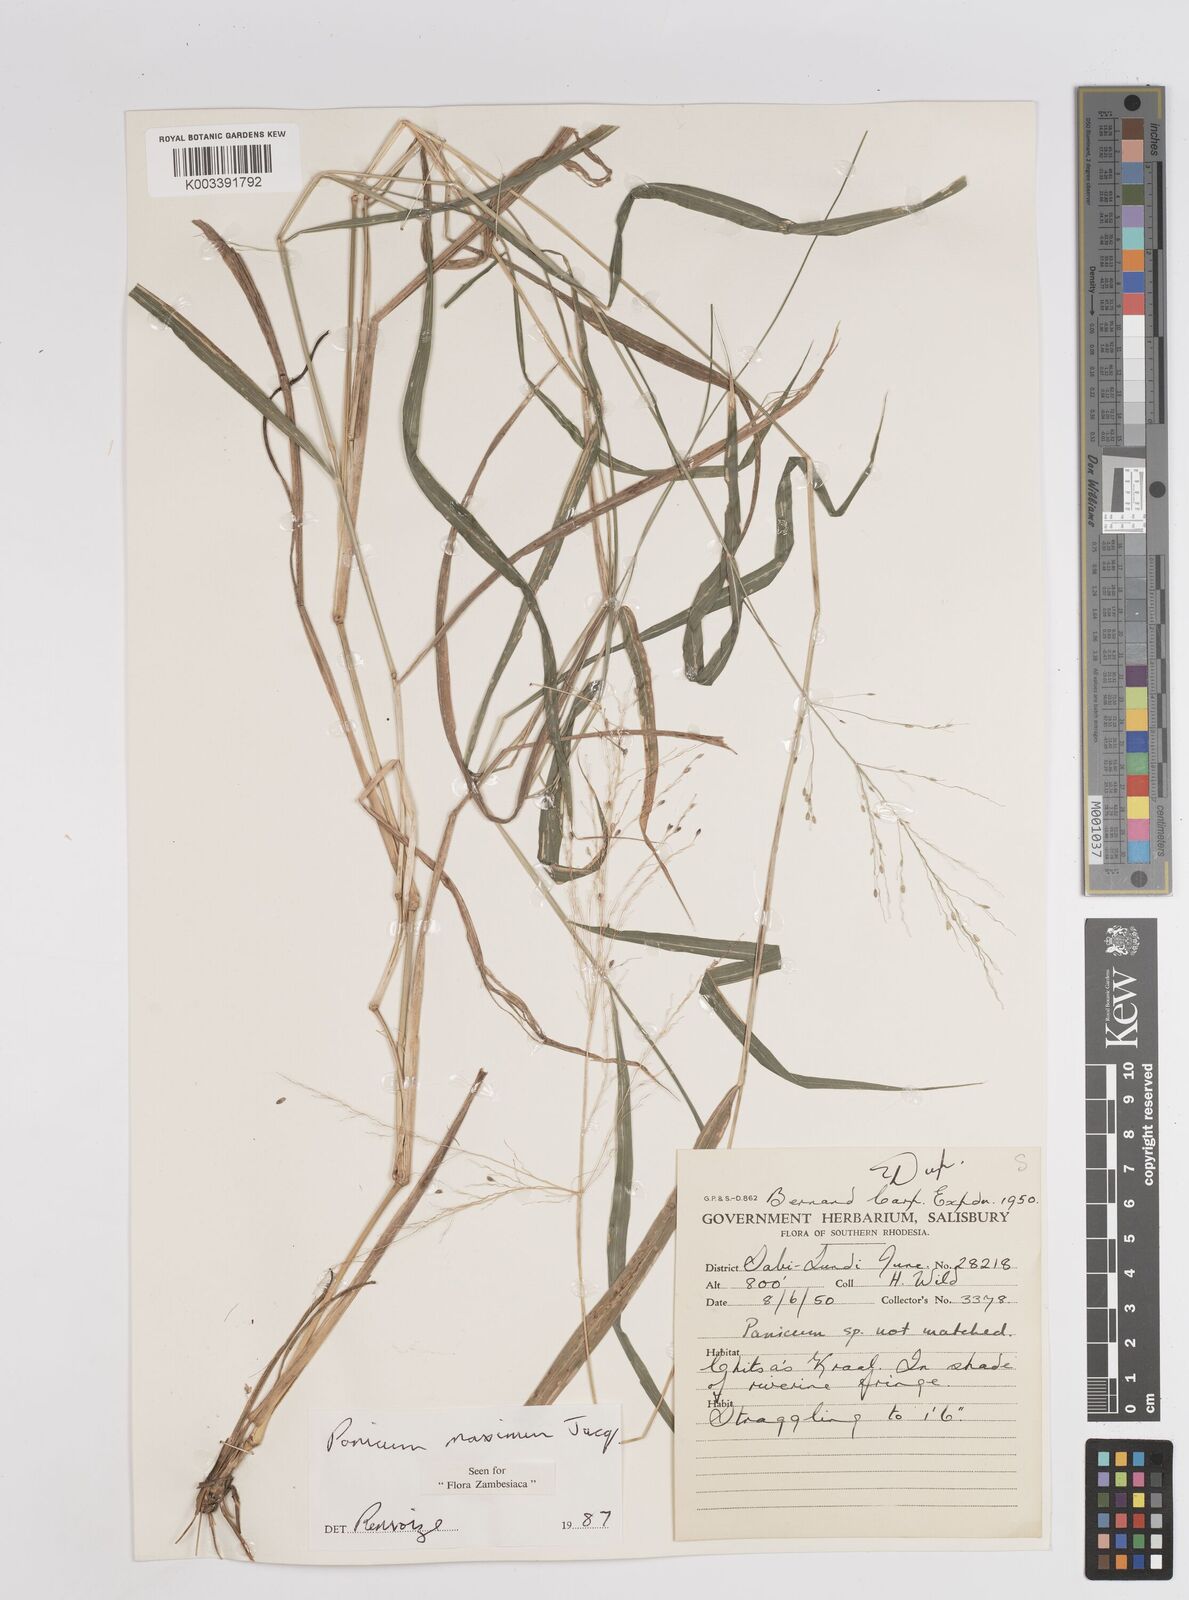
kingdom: Plantae
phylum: Tracheophyta
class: Liliopsida
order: Poales
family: Poaceae
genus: Megathyrsus
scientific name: Megathyrsus maximus
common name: Guineagrass
